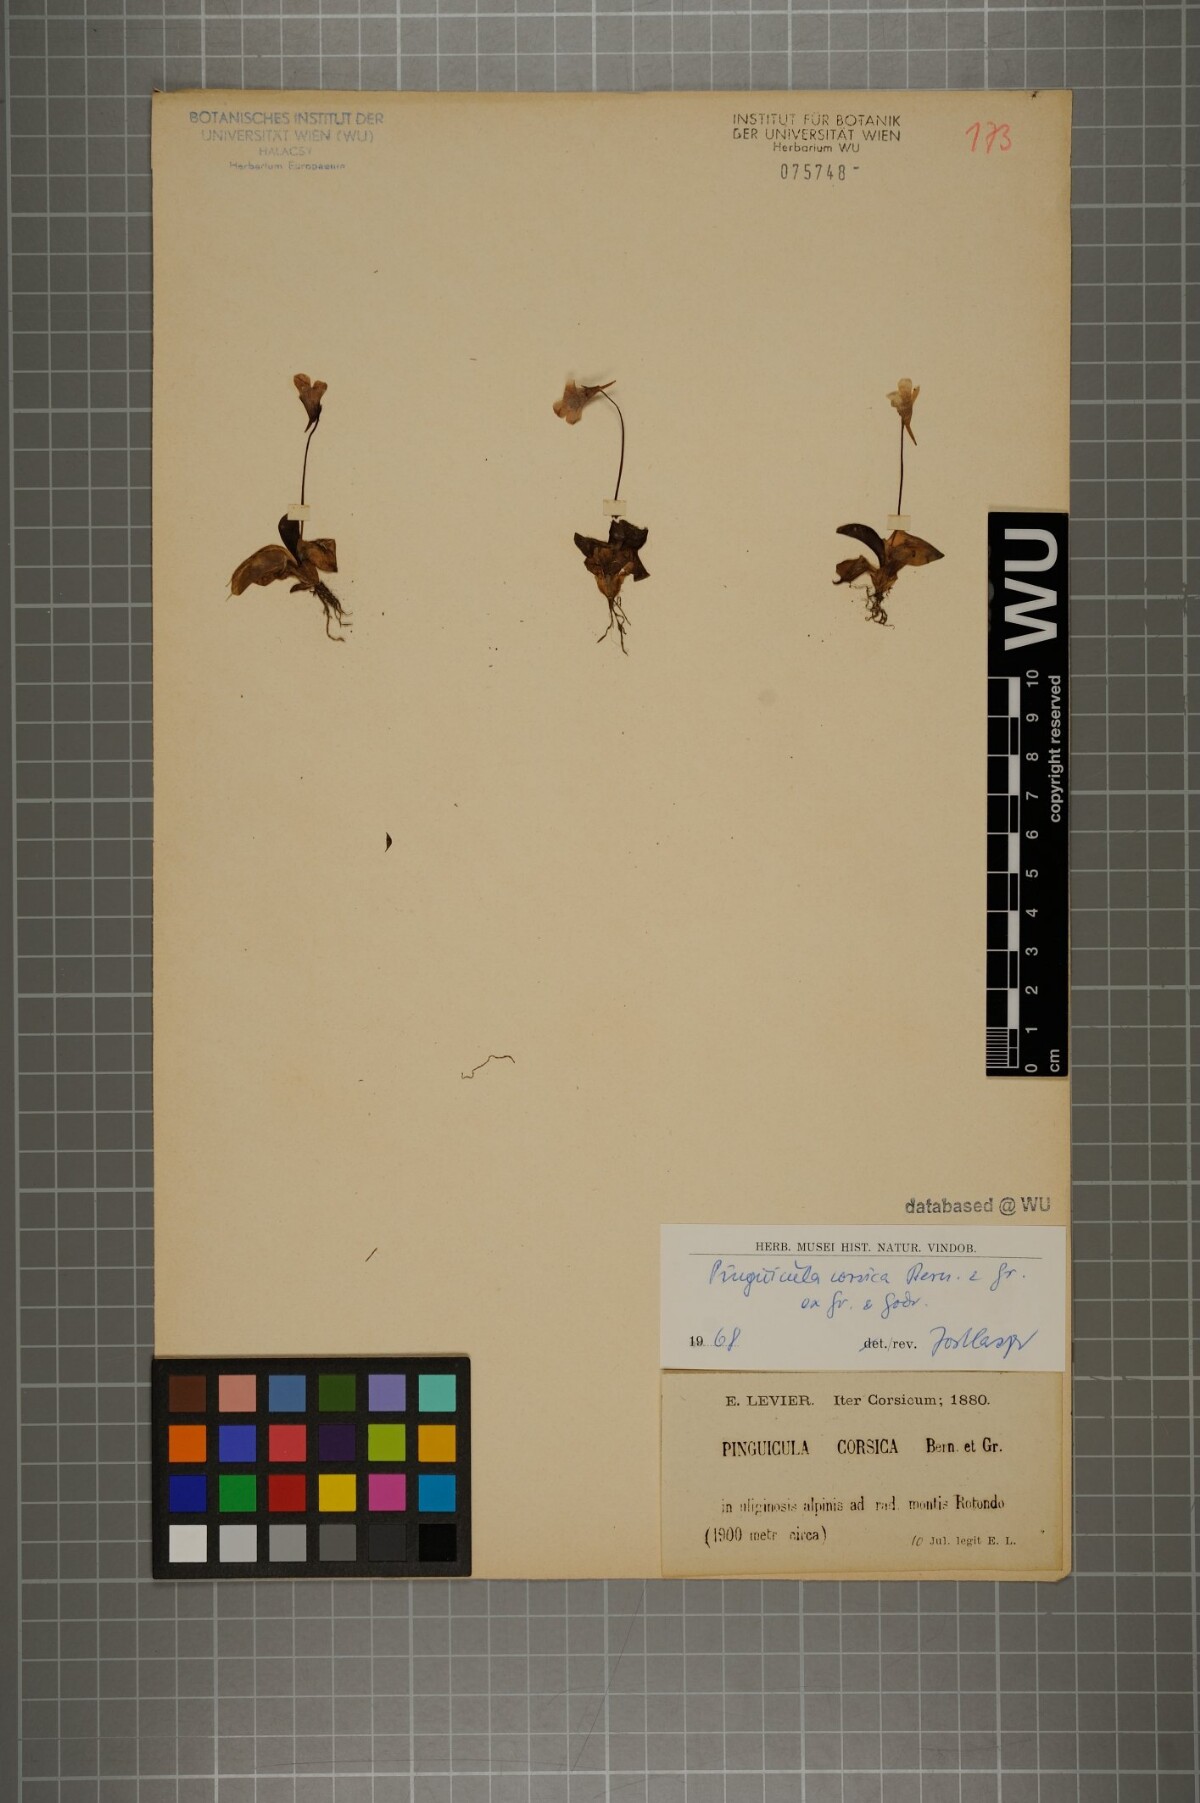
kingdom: Plantae
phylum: Tracheophyta
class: Magnoliopsida
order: Lamiales
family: Lentibulariaceae
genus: Pinguicula
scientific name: Pinguicula corsica
